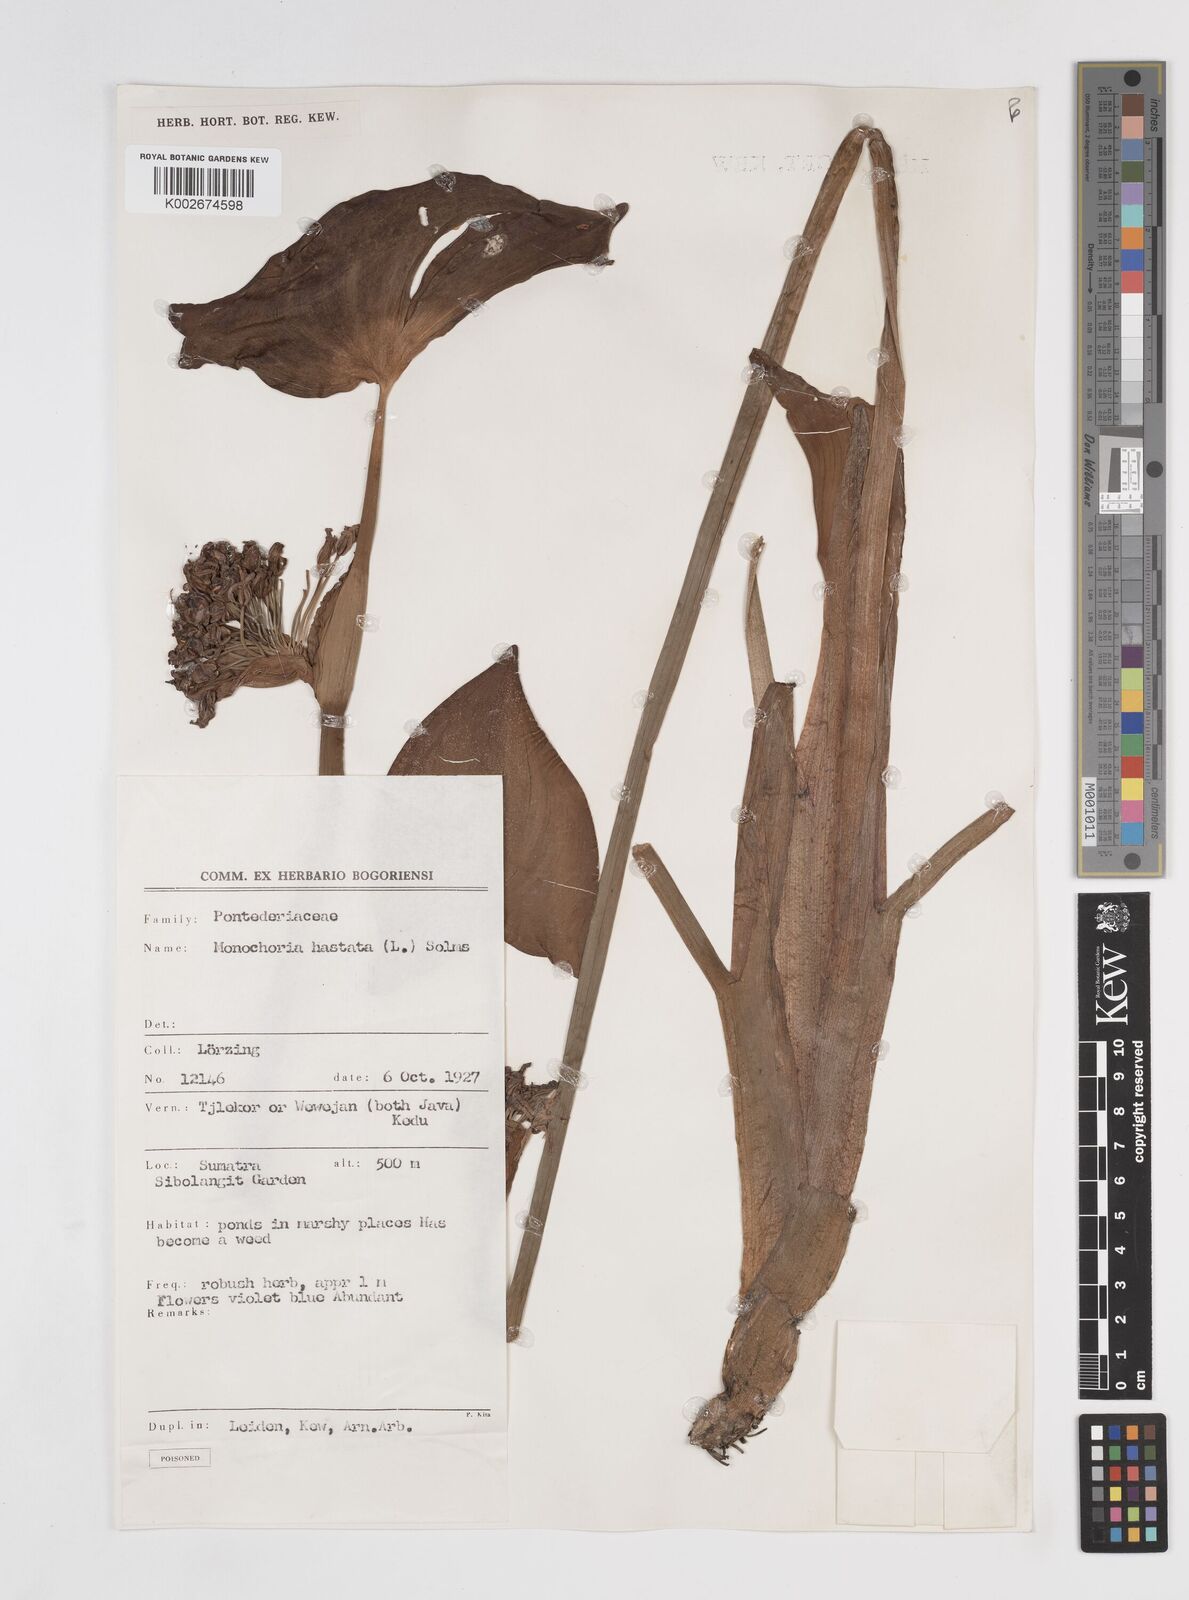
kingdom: Plantae
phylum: Tracheophyta
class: Liliopsida
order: Commelinales
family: Pontederiaceae
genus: Pontederia
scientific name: Pontederia hastata
